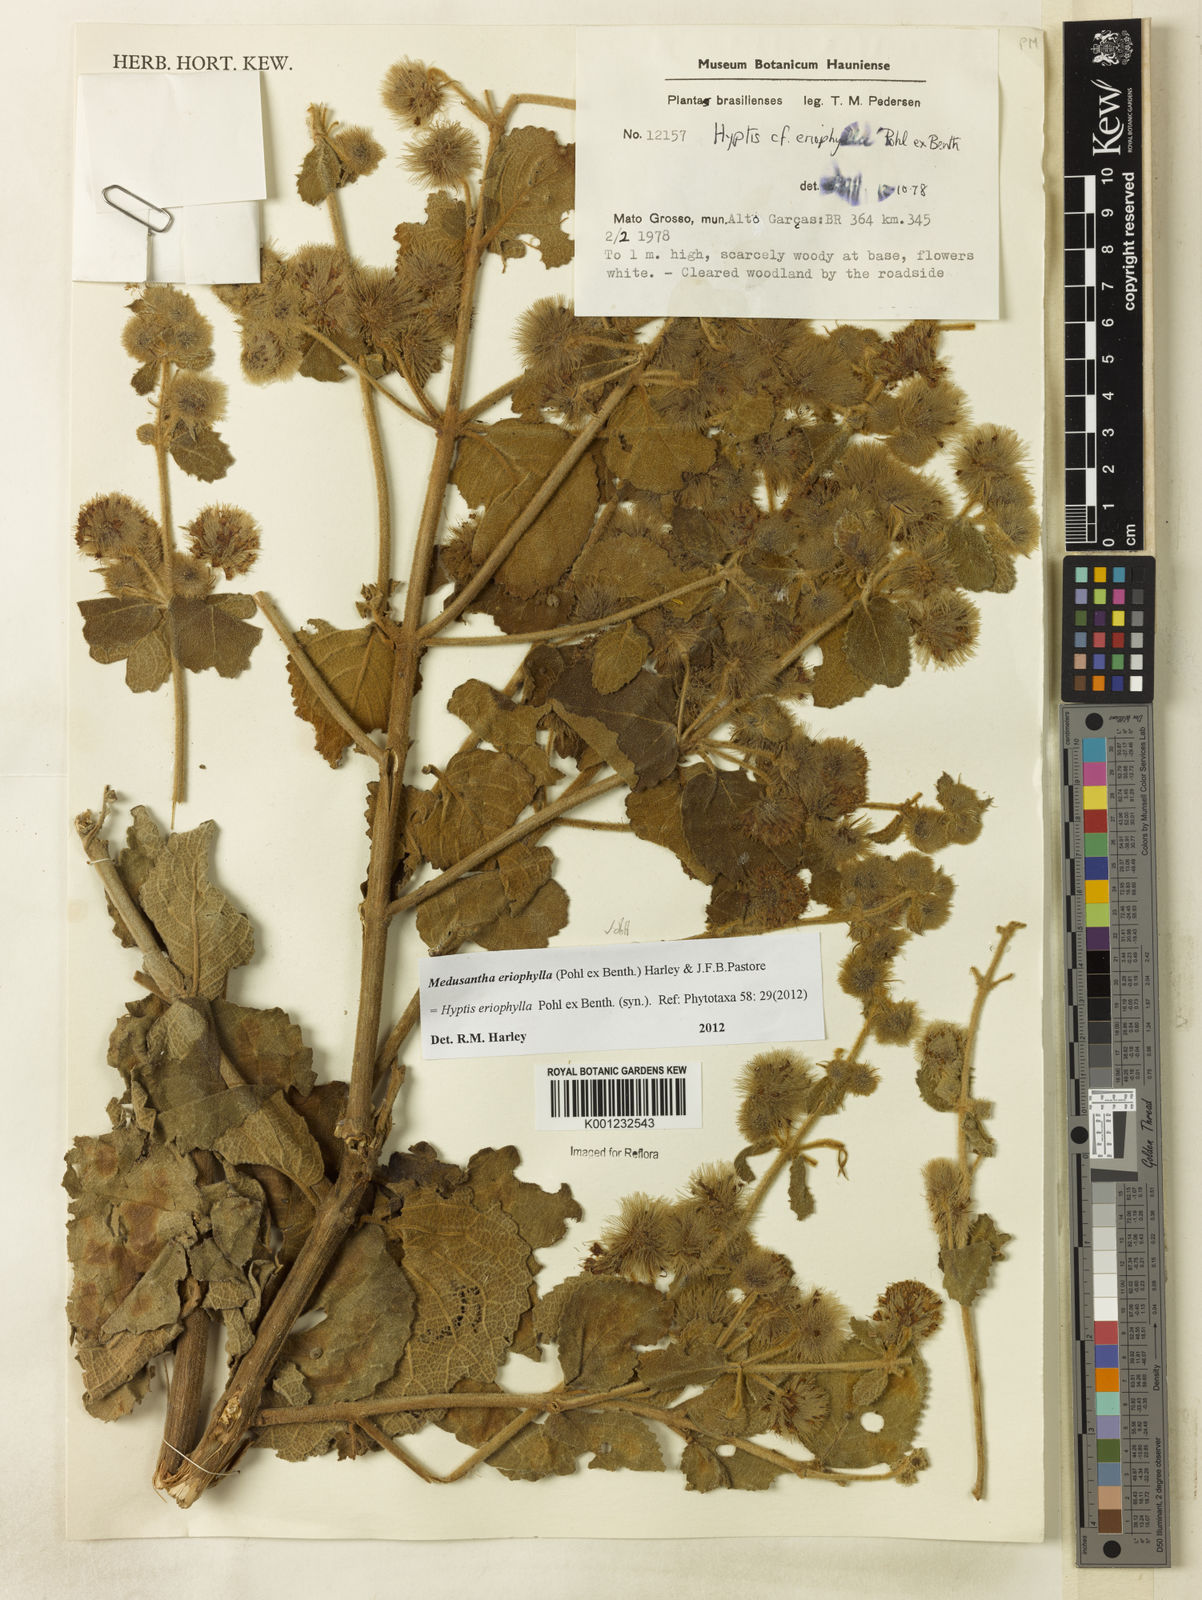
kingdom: Plantae
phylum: Tracheophyta
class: Magnoliopsida
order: Lamiales
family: Lamiaceae
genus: Medusantha
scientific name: Medusantha eriophylla
